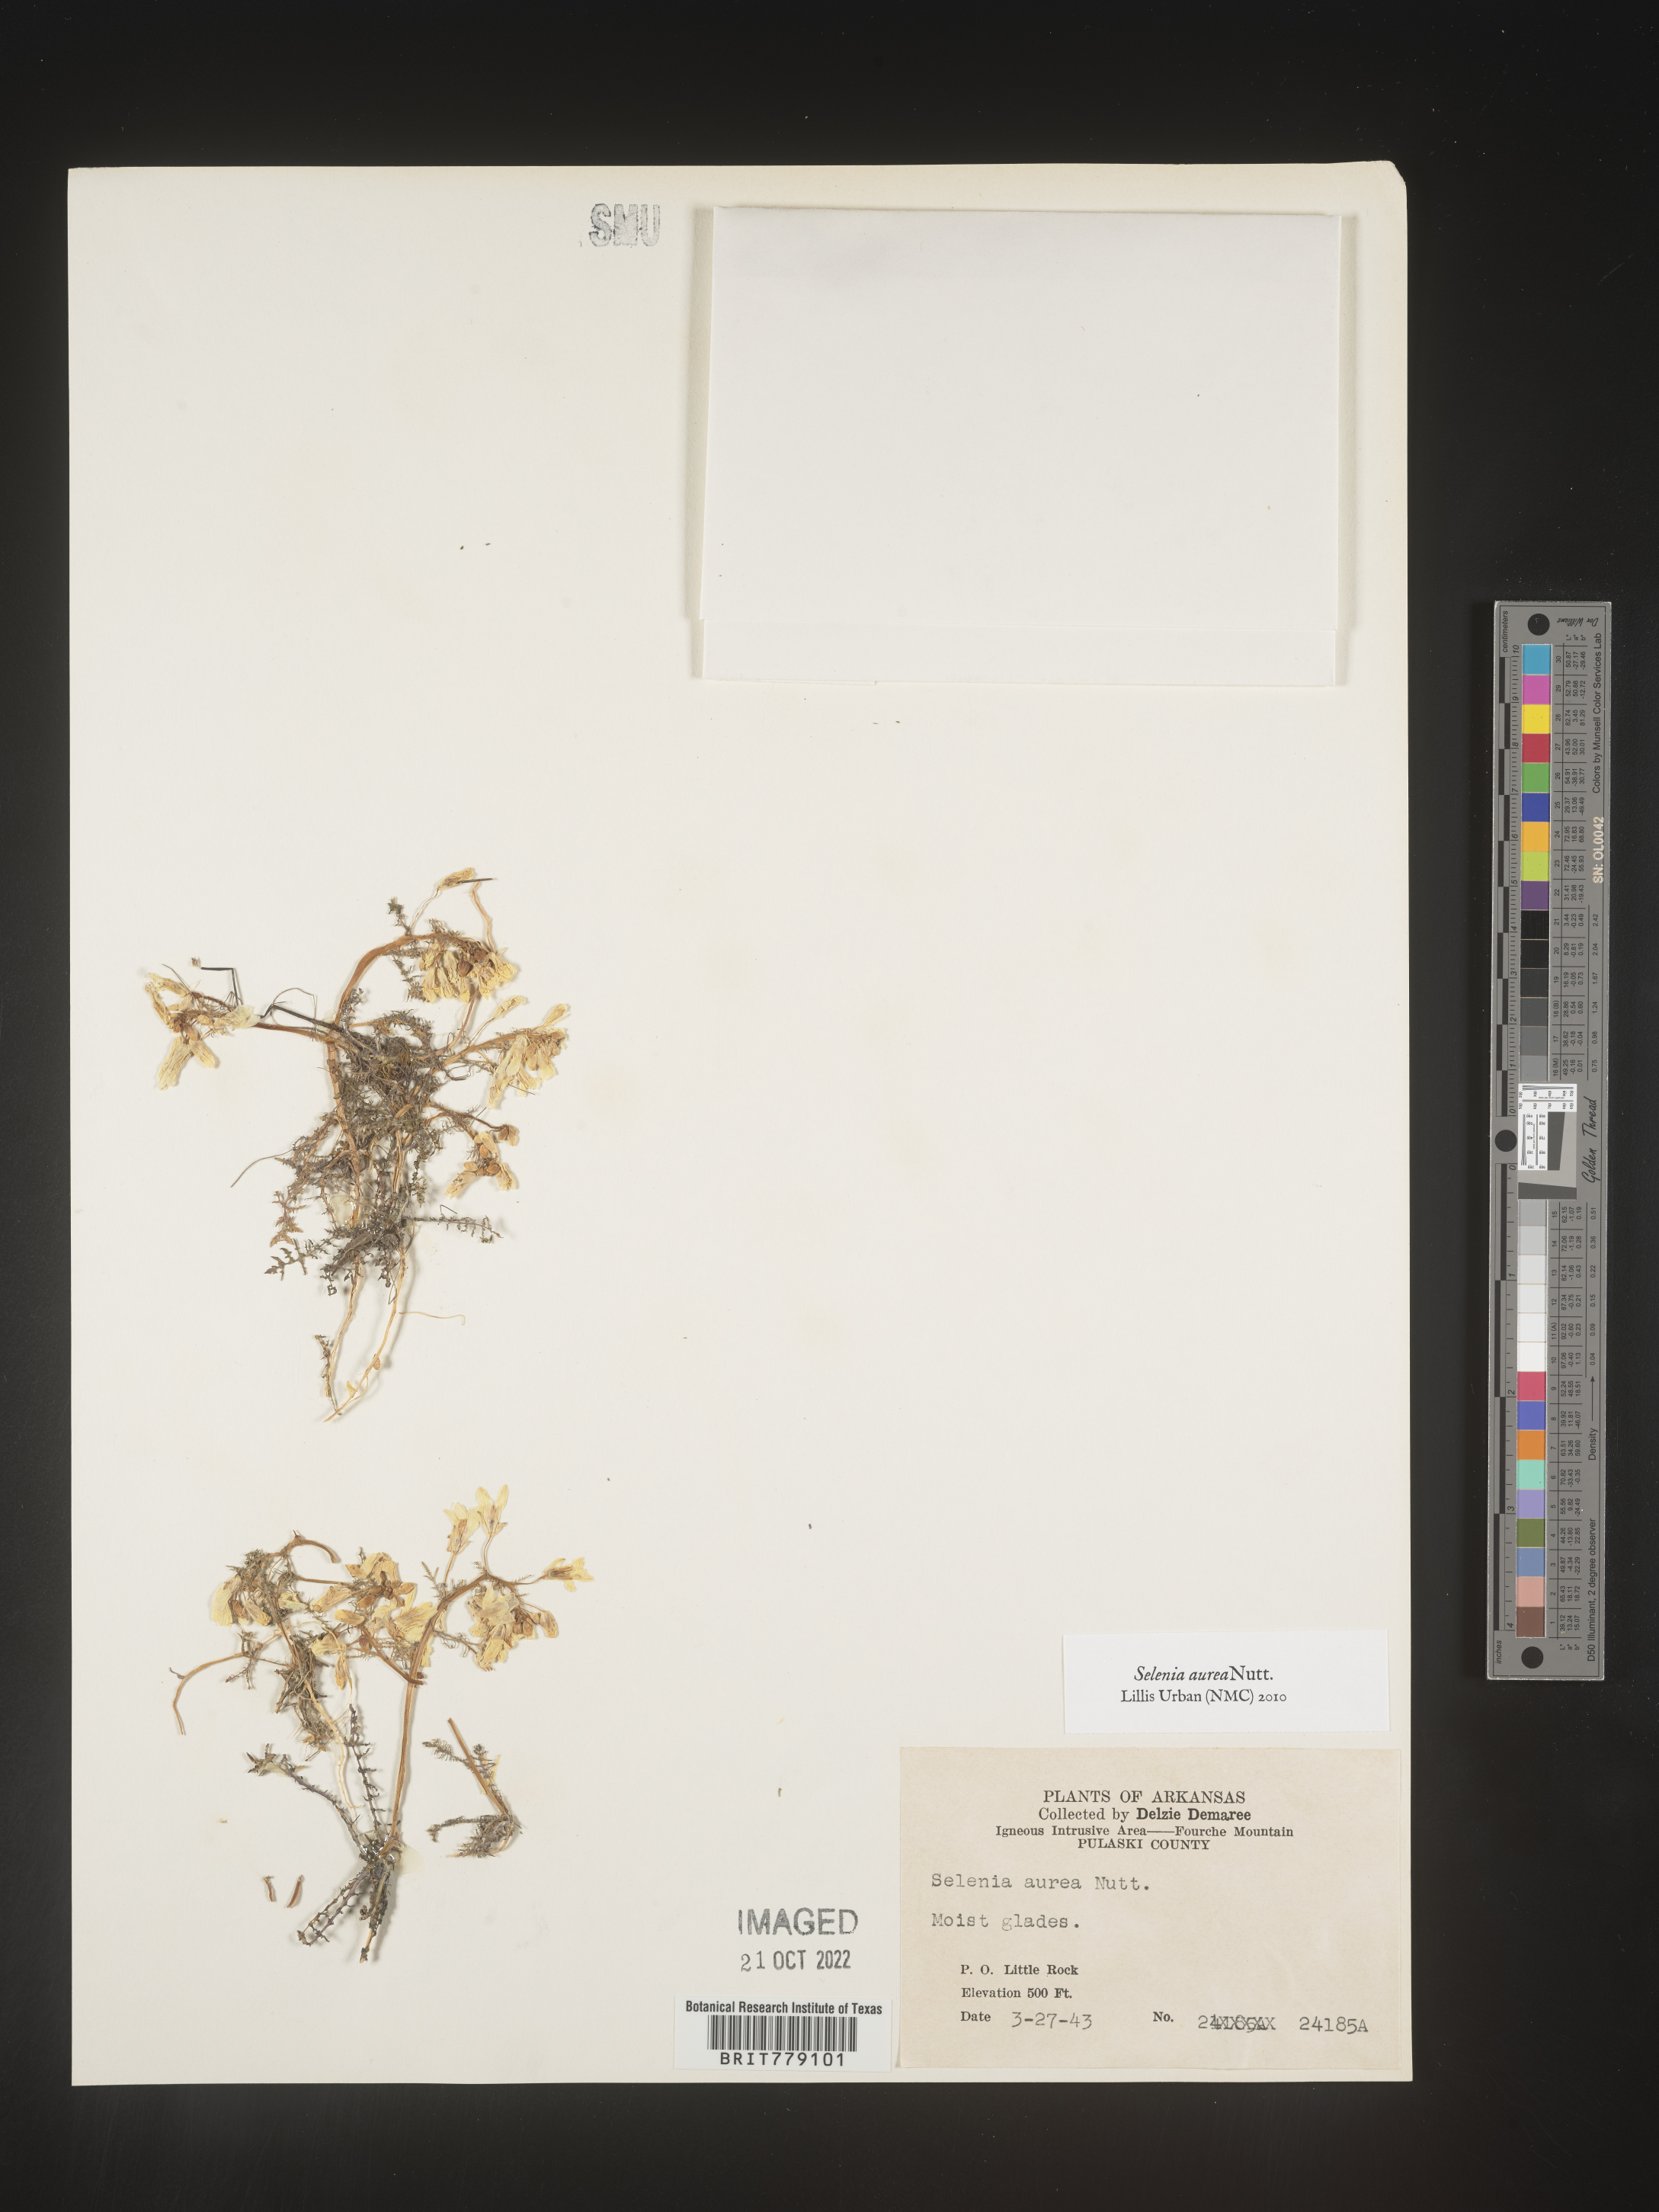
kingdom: Plantae
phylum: Tracheophyta
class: Magnoliopsida
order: Brassicales
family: Brassicaceae
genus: Selenia
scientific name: Selenia
